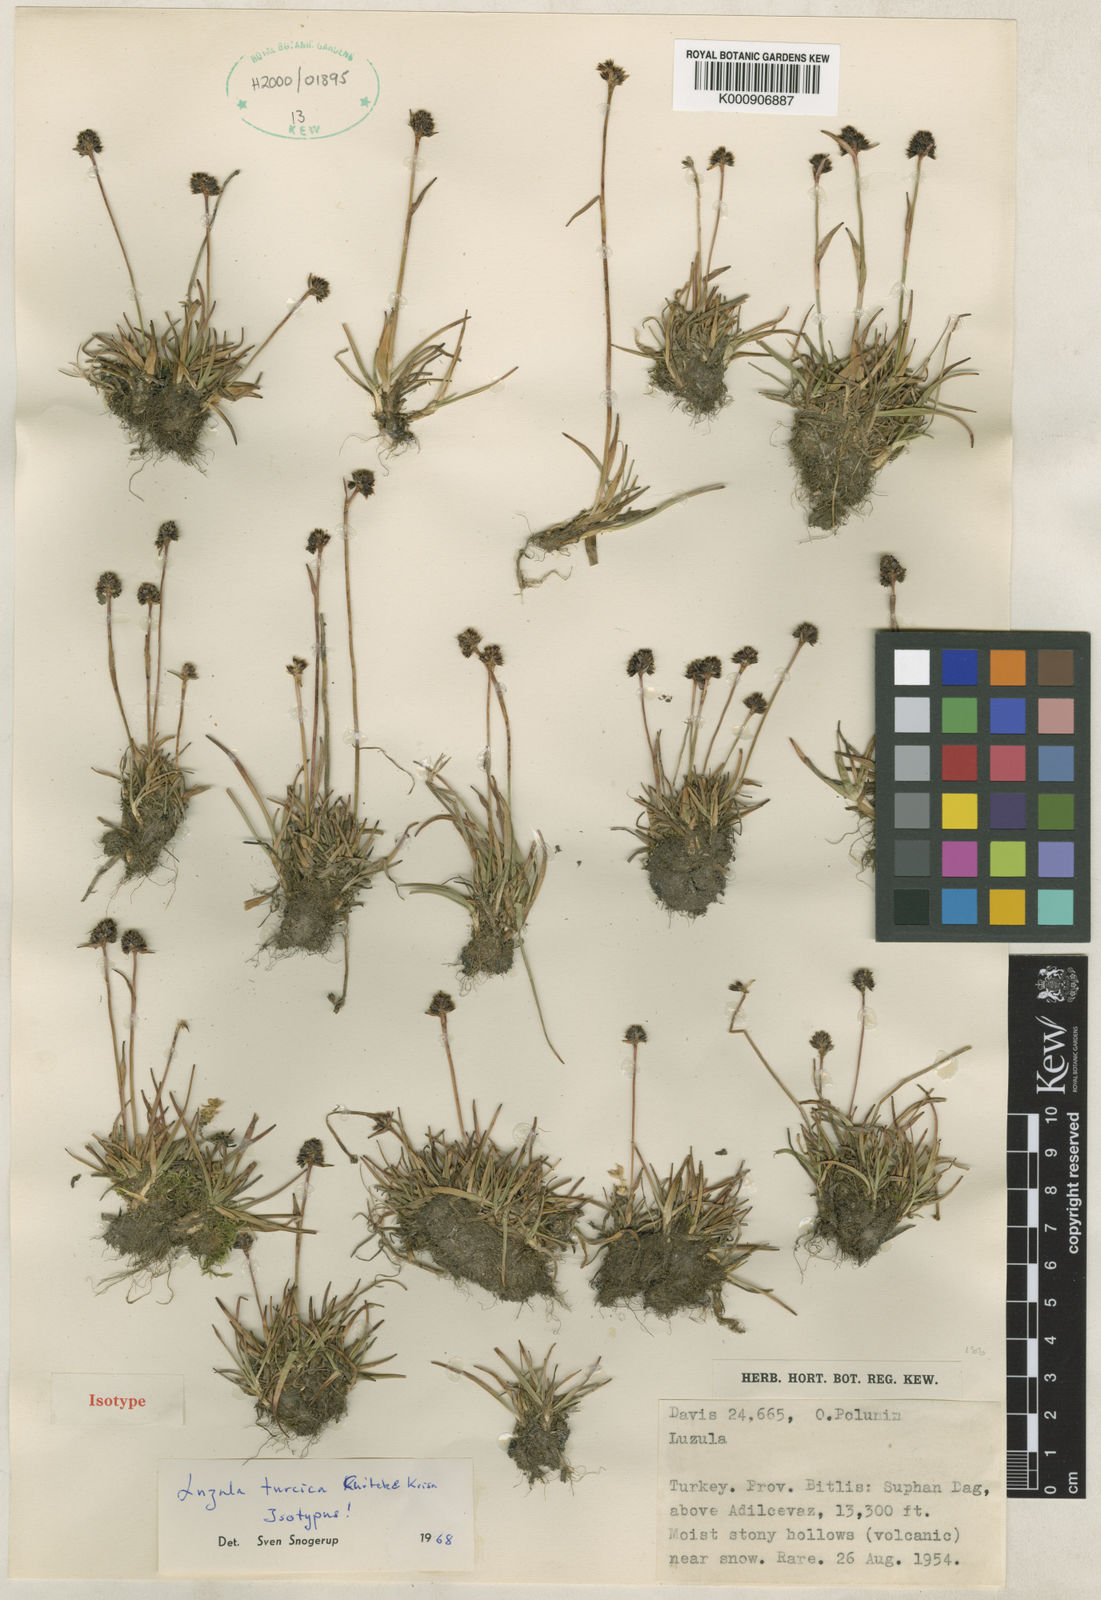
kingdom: Plantae
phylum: Tracheophyta
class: Liliopsida
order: Poales
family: Juncaceae
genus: Luzula
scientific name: Luzula stenophylla
